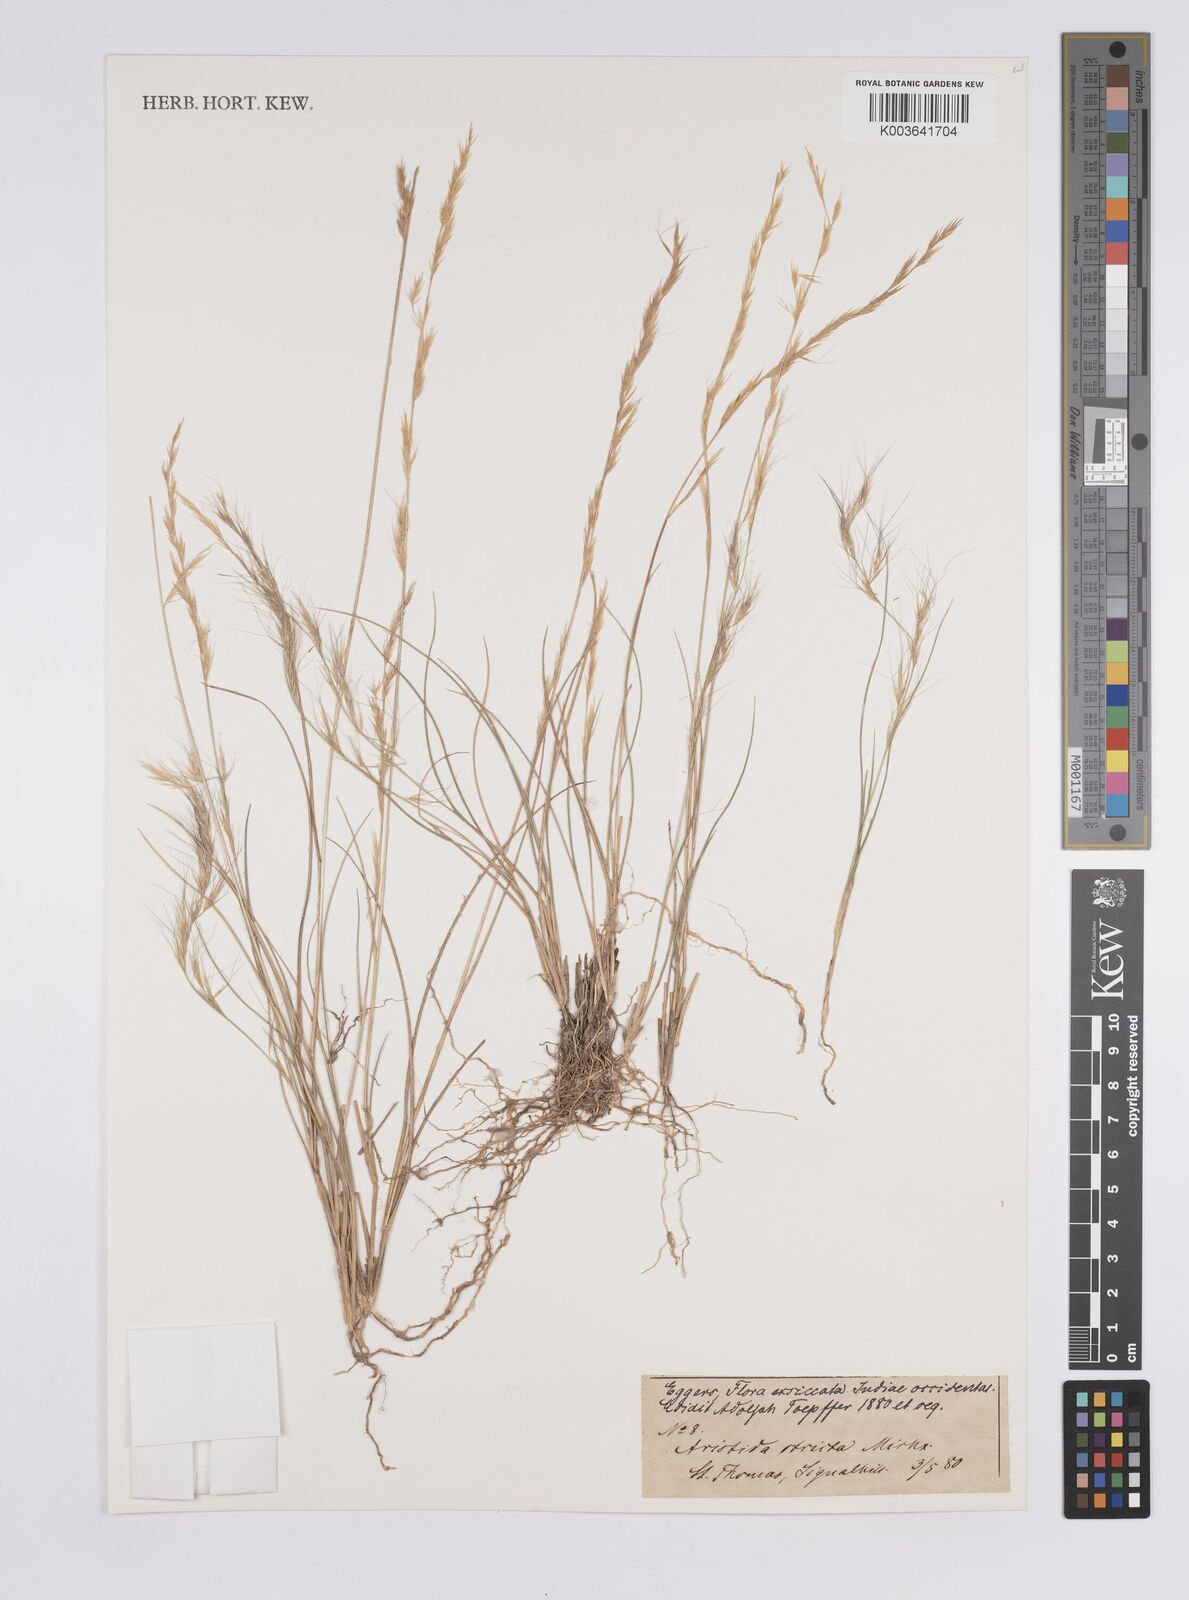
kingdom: Plantae
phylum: Tracheophyta
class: Liliopsida
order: Poales
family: Poaceae
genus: Aristida
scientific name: Aristida stricta
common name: Pineland three-awn
